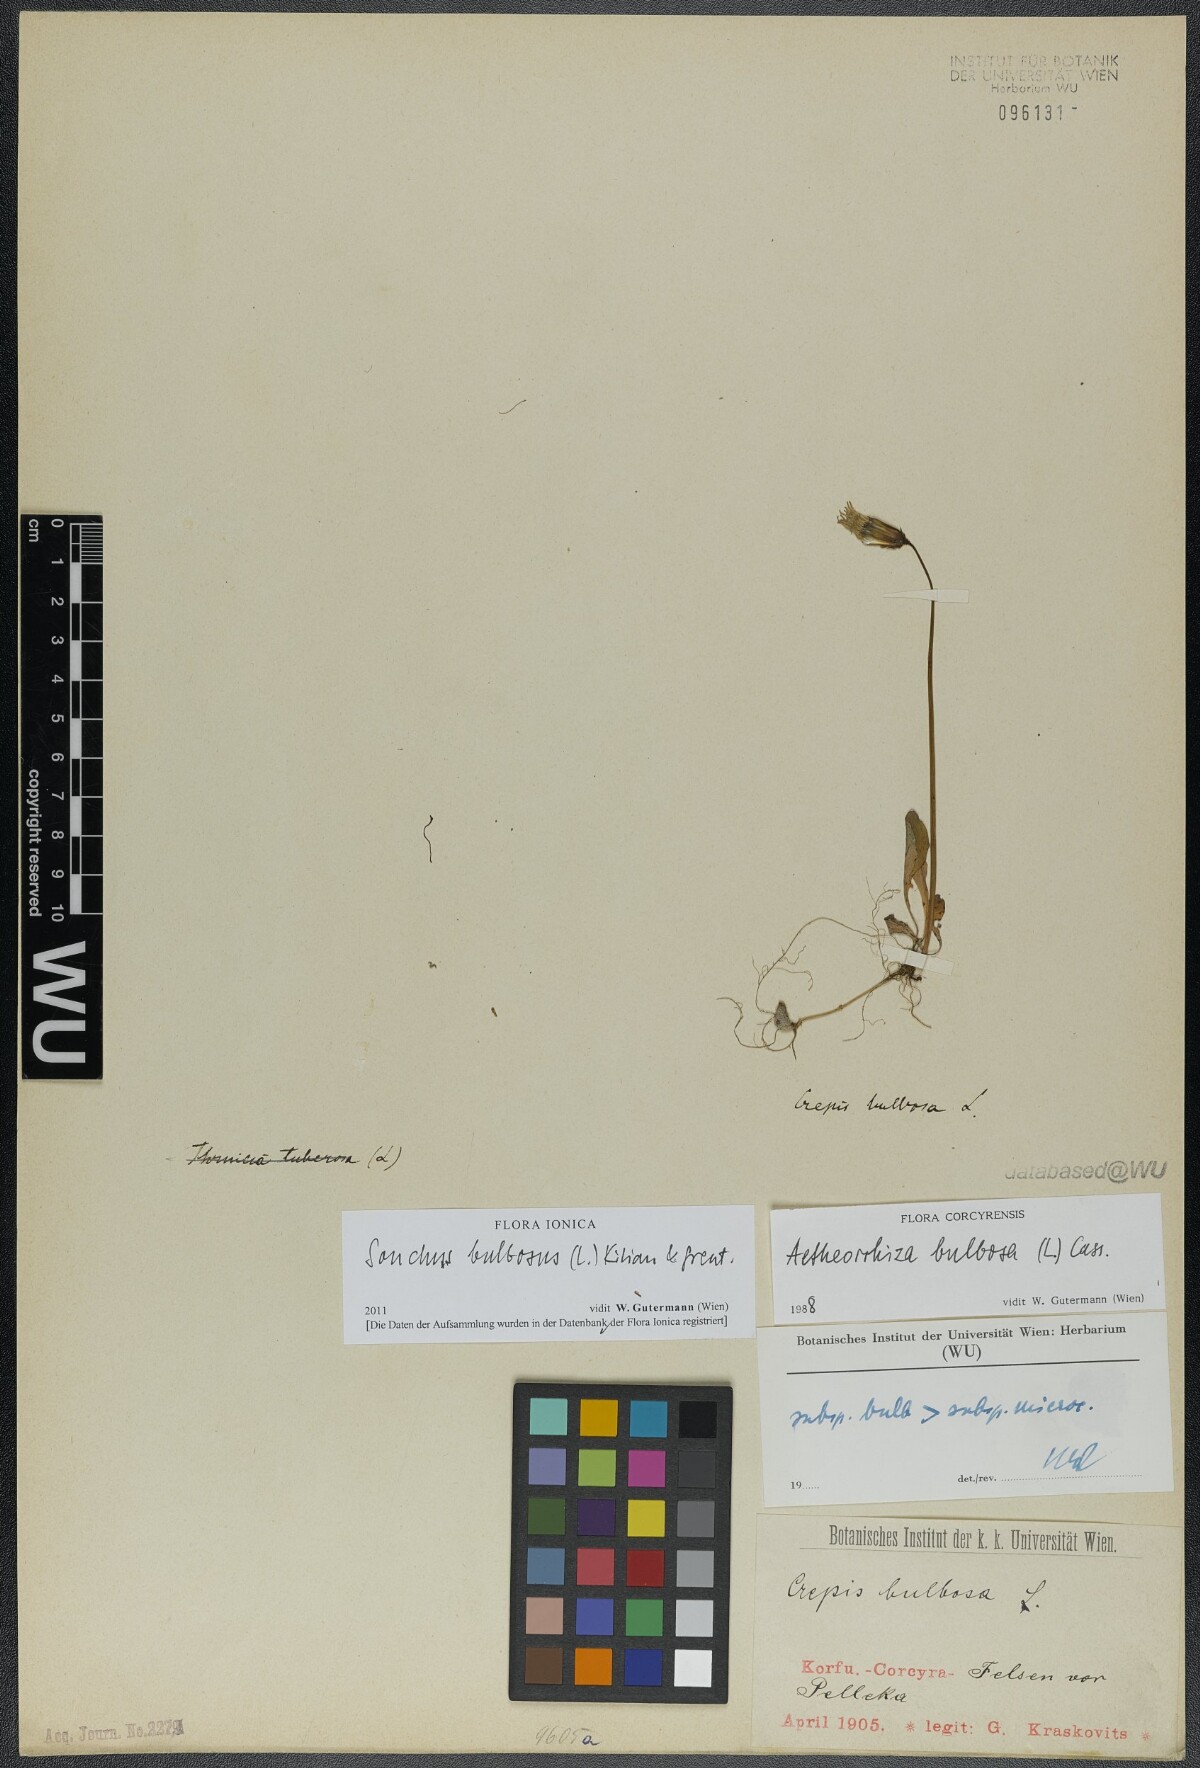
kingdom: Plantae
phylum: Tracheophyta
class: Magnoliopsida
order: Asterales
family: Asteraceae
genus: Aetheorhiza
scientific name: Aetheorhiza bulbosa
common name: Tuberous hawk's-beard
